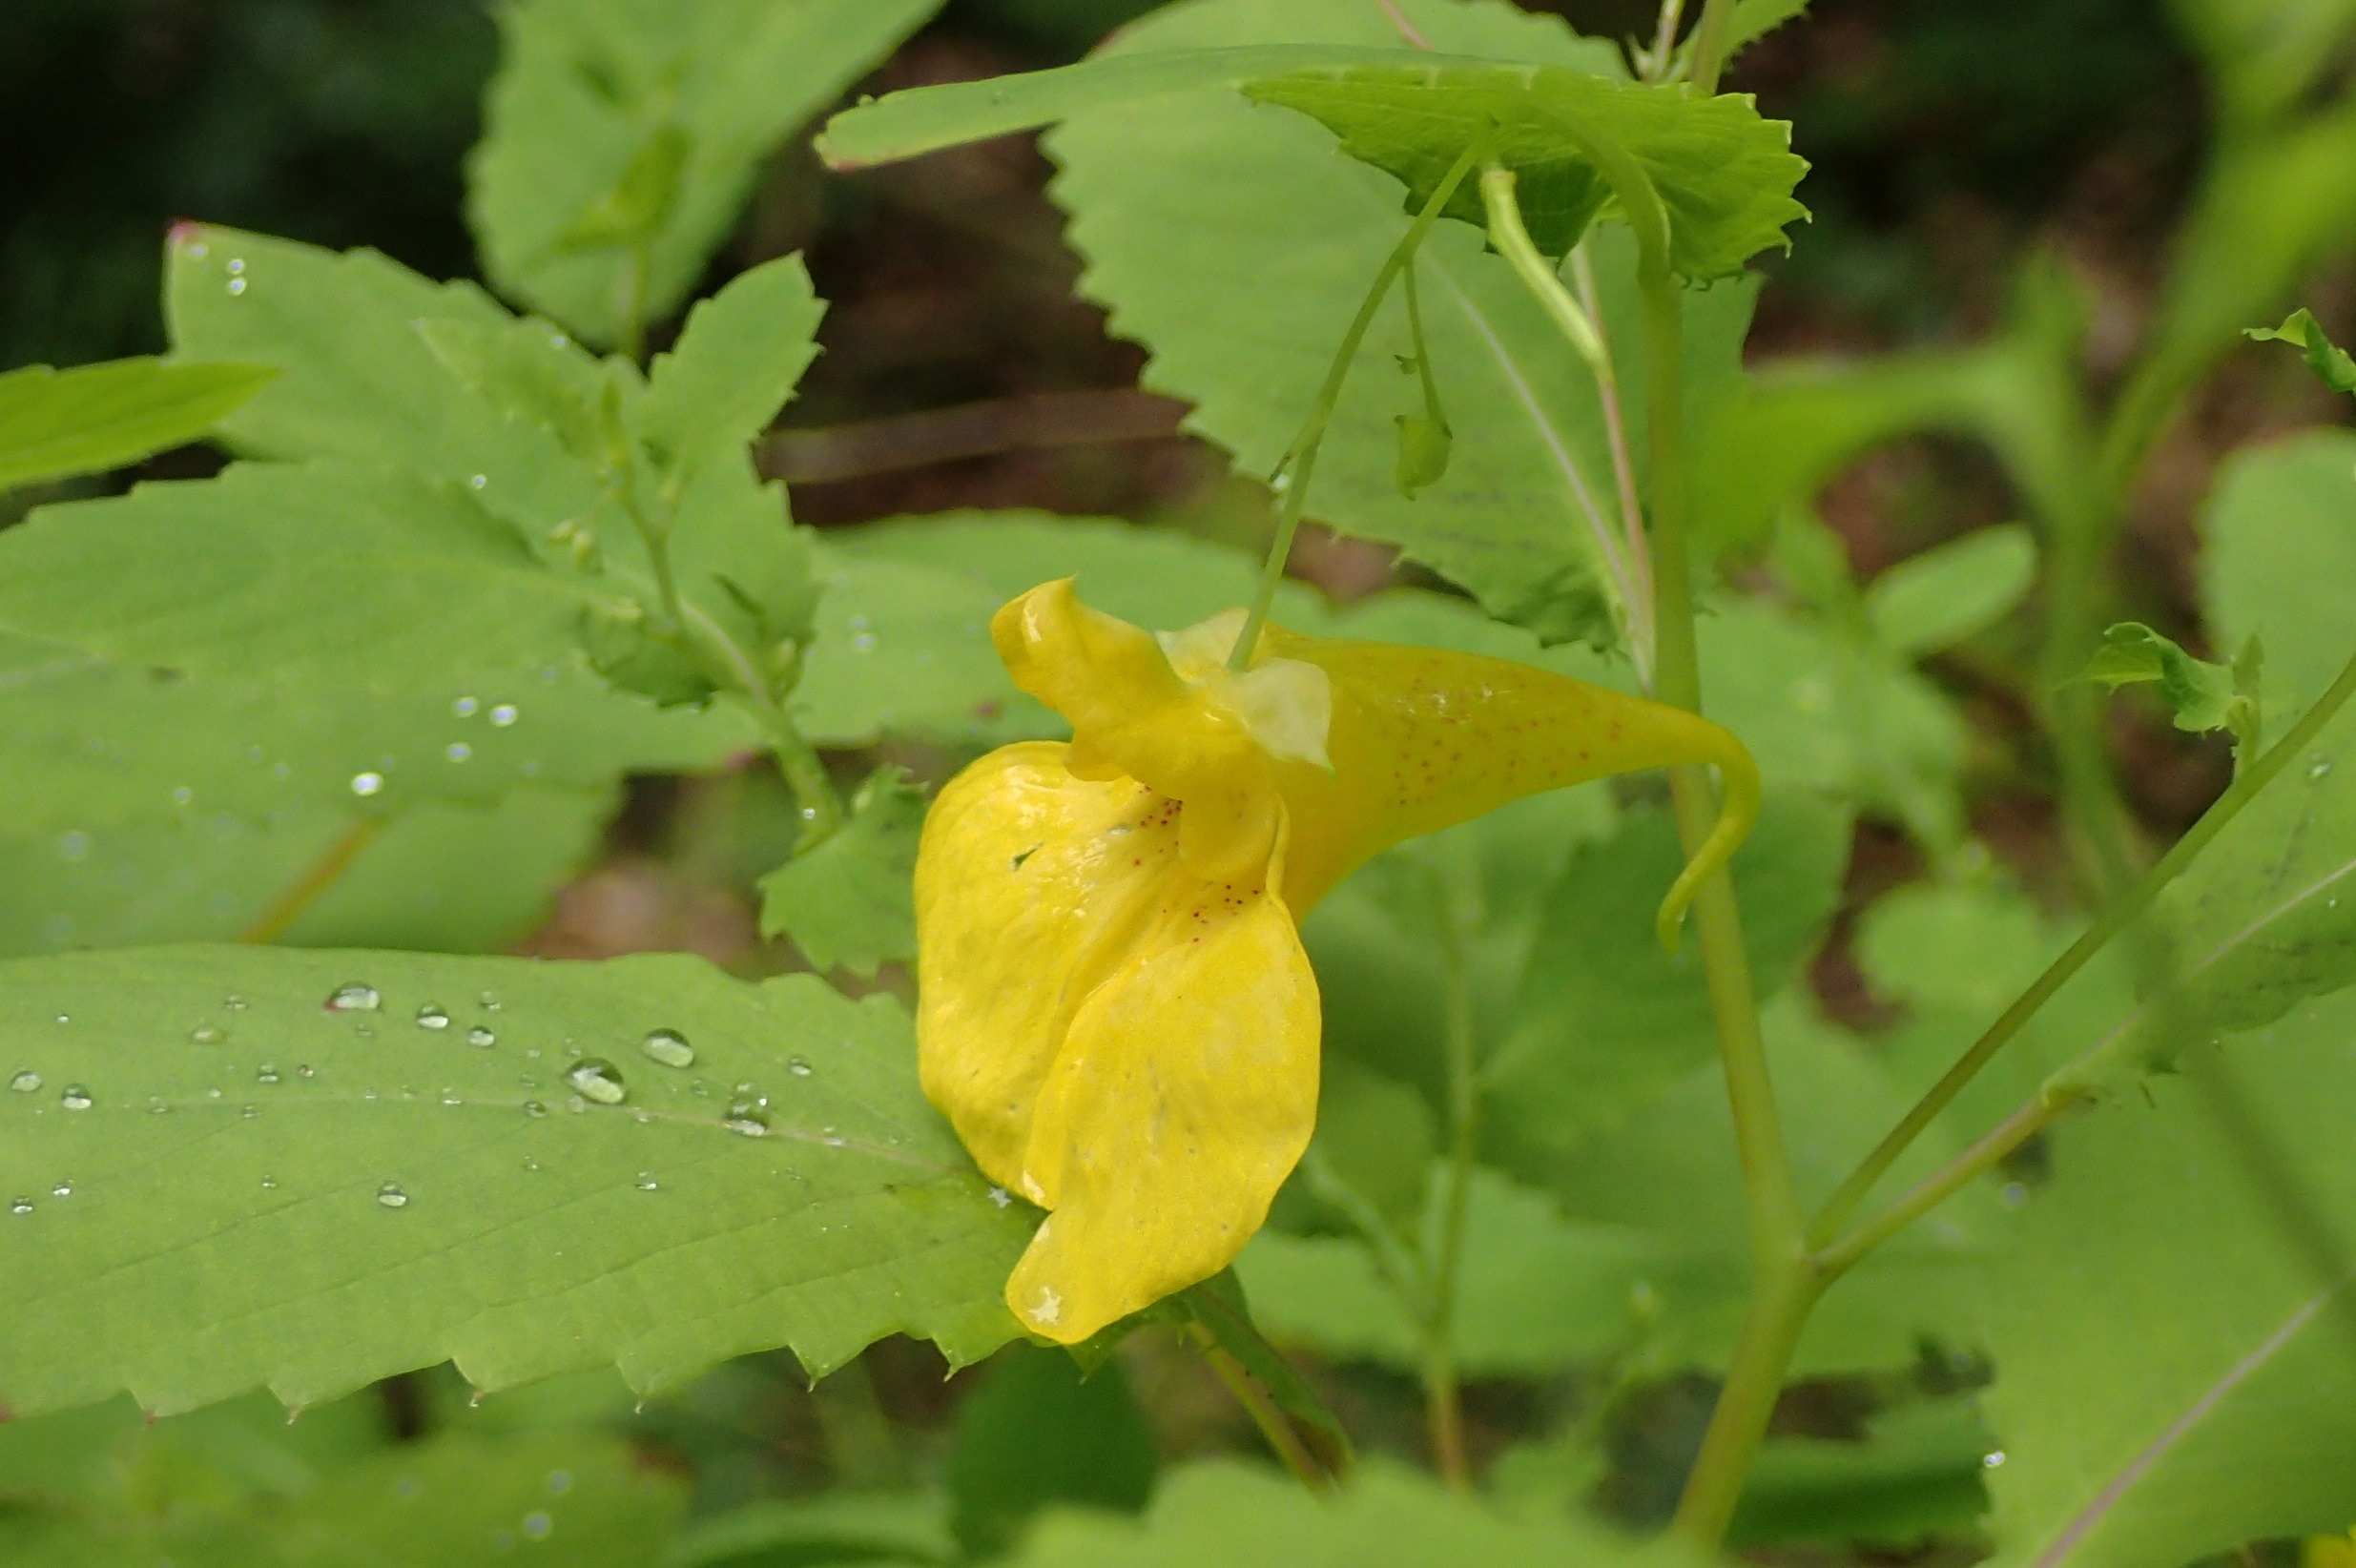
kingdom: Plantae
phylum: Tracheophyta
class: Magnoliopsida
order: Ericales
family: Balsaminaceae
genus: Impatiens
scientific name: Impatiens noli-tangere
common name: Spring-balsamin
